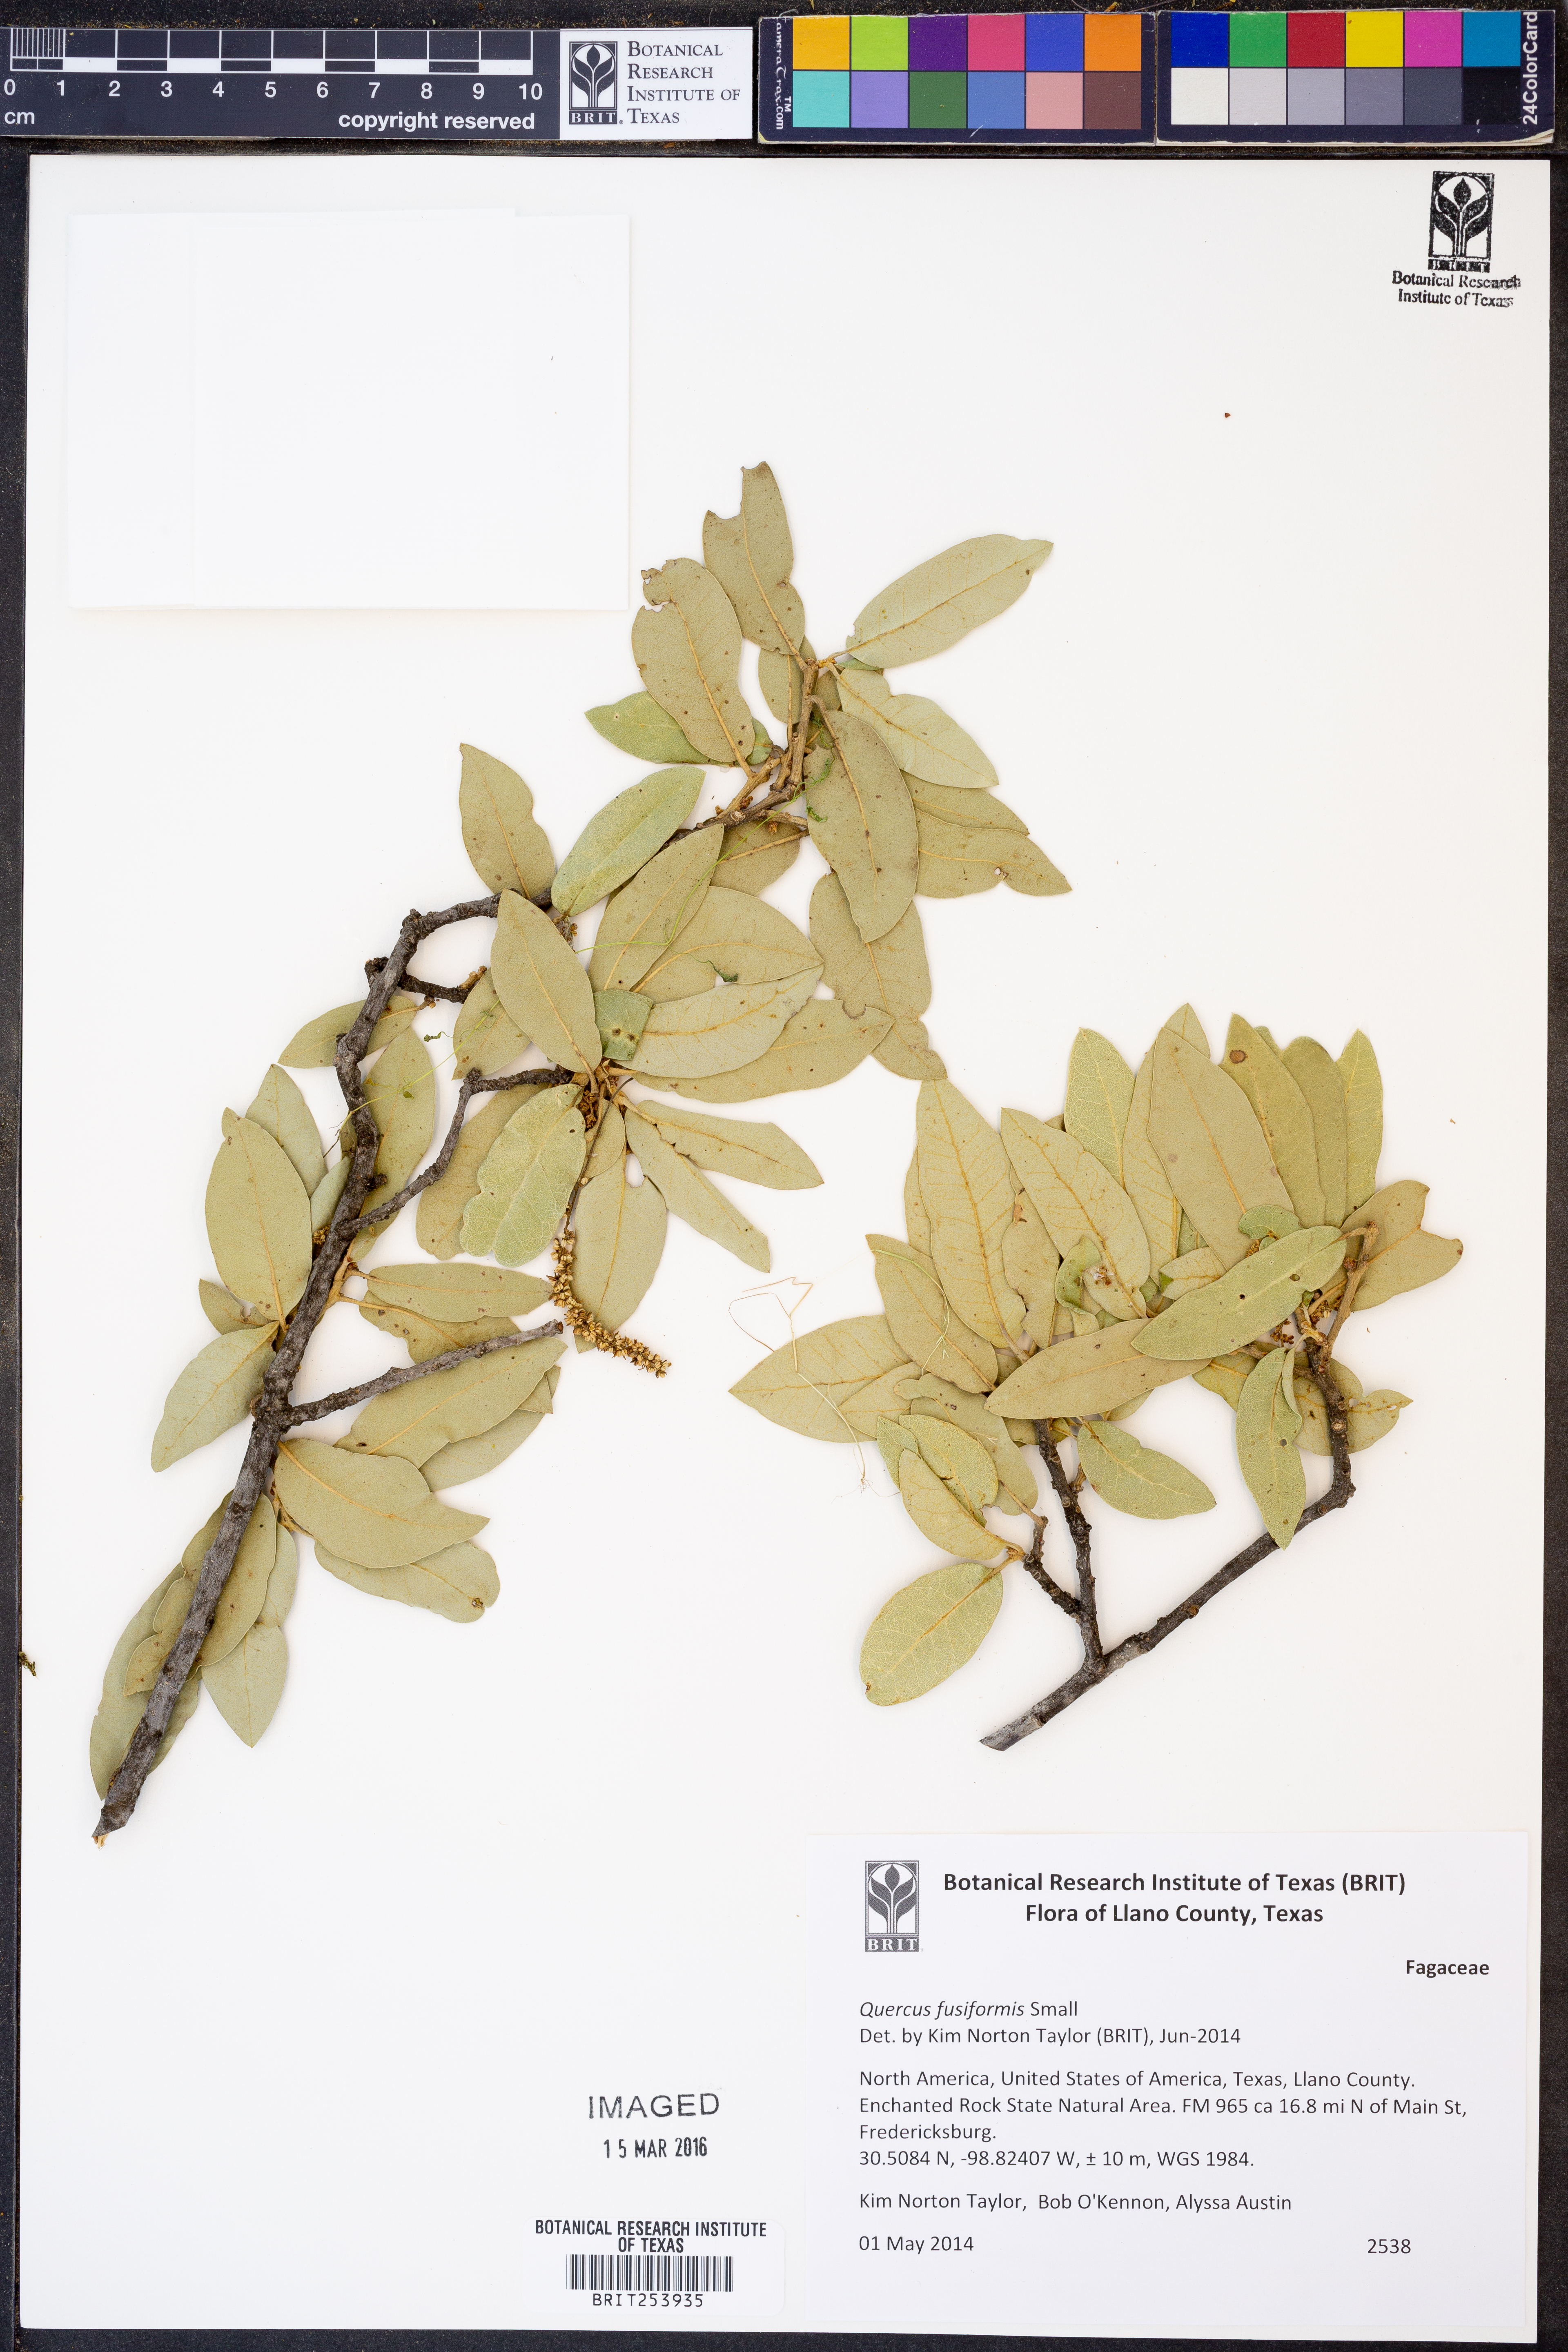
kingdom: Plantae
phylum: Tracheophyta
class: Magnoliopsida
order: Fagales
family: Fagaceae
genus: Quercus
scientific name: Quercus fusiformis
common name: Texas live oak
